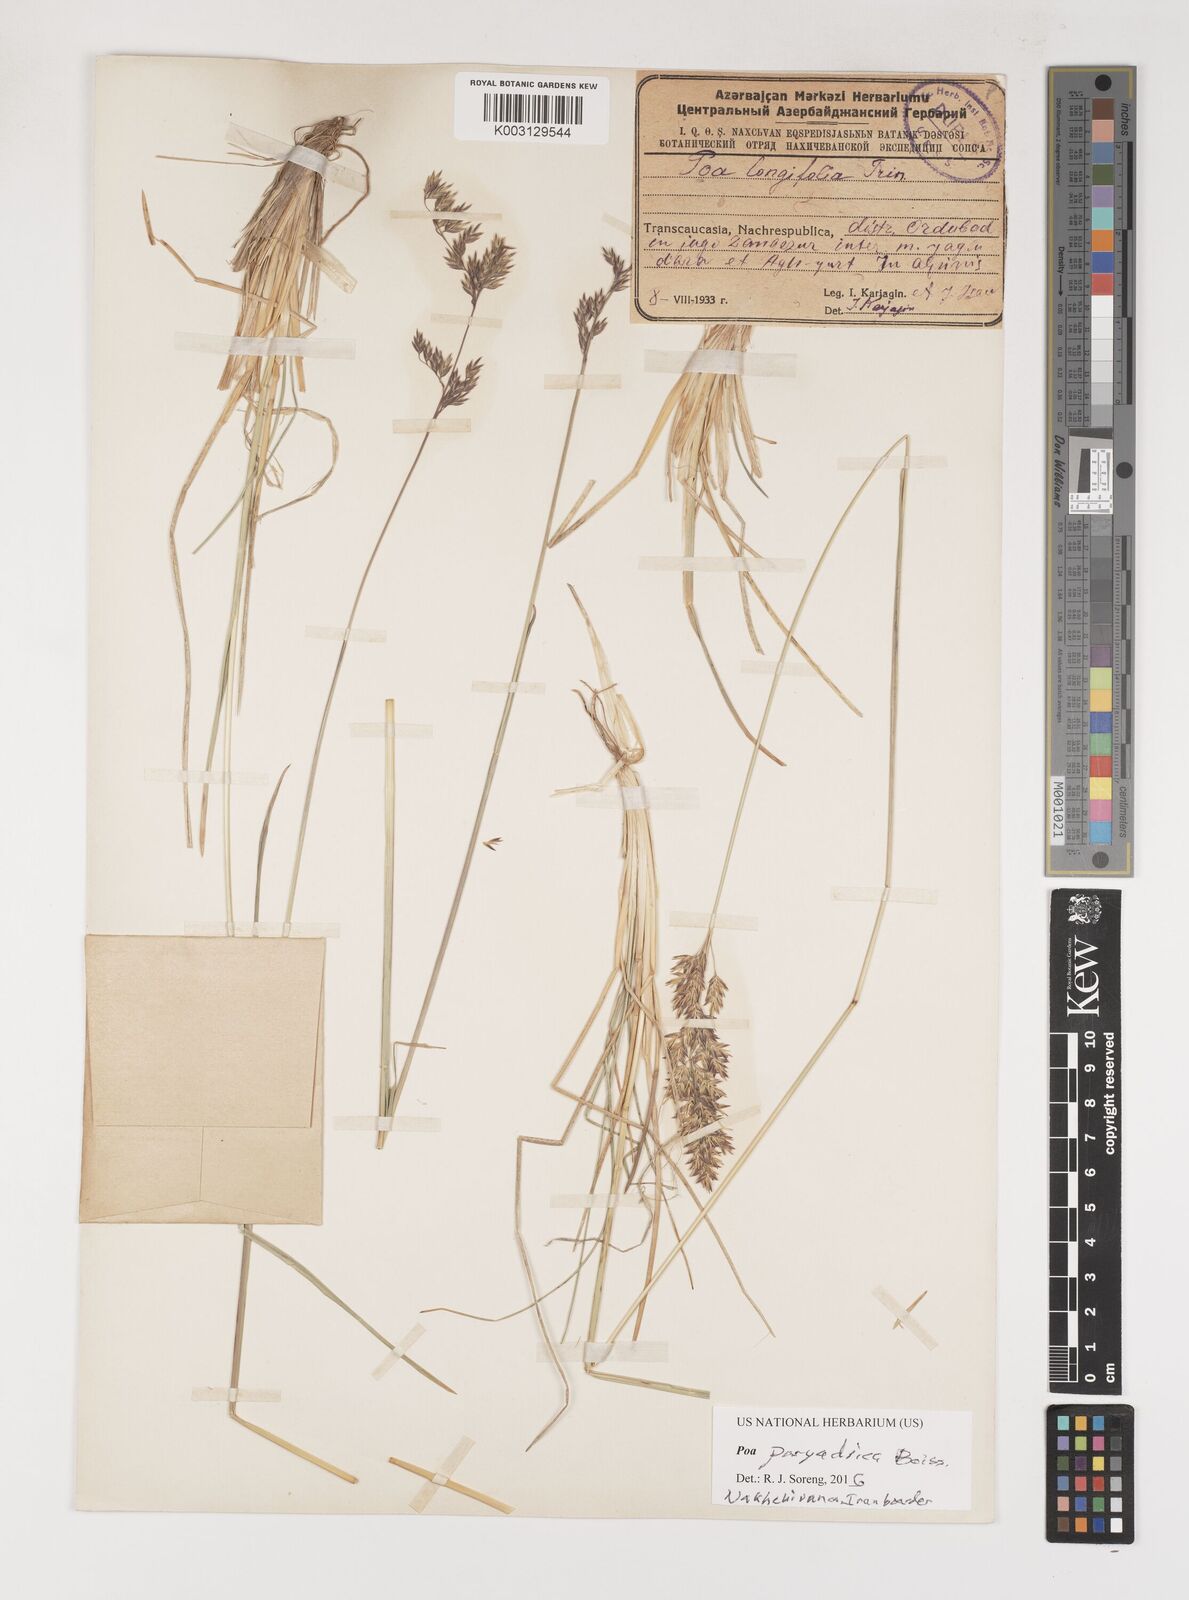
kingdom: Plantae
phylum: Tracheophyta
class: Liliopsida
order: Poales
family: Poaceae
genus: Poa
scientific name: Poa longifolia
